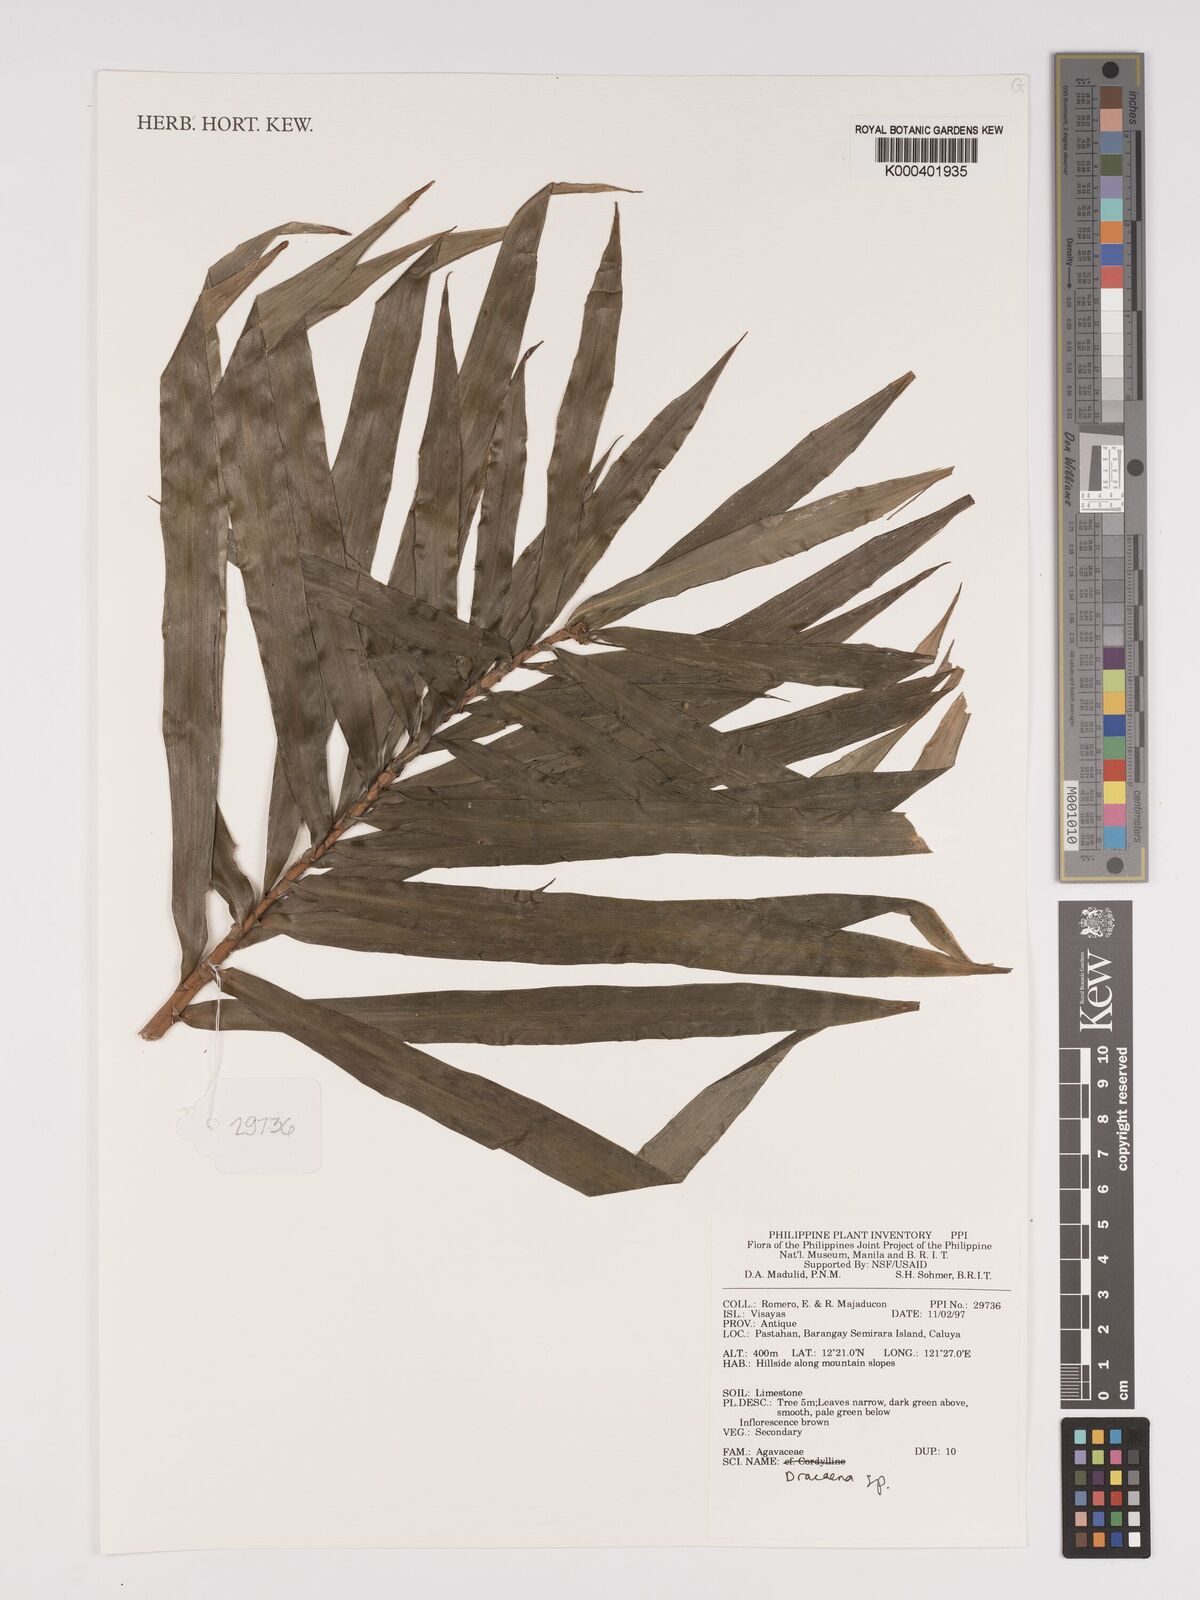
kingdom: Plantae
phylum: Tracheophyta
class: Liliopsida
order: Asparagales
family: Asparagaceae
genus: Dracaena
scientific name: Dracaena
